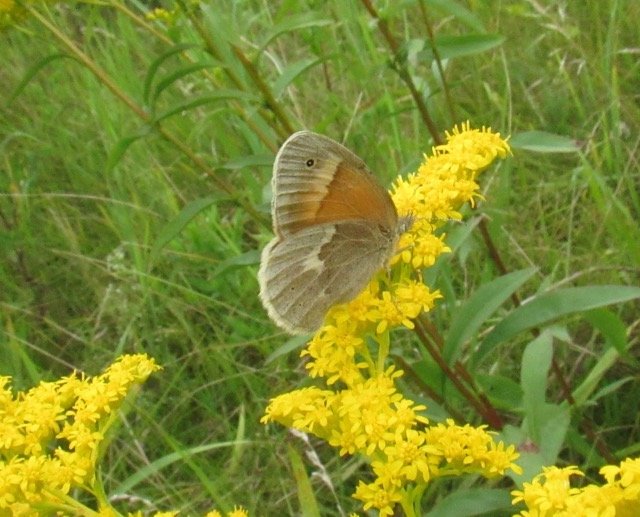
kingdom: Animalia
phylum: Arthropoda
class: Insecta
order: Lepidoptera
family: Nymphalidae
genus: Coenonympha
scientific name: Coenonympha tullia
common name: Large Heath
